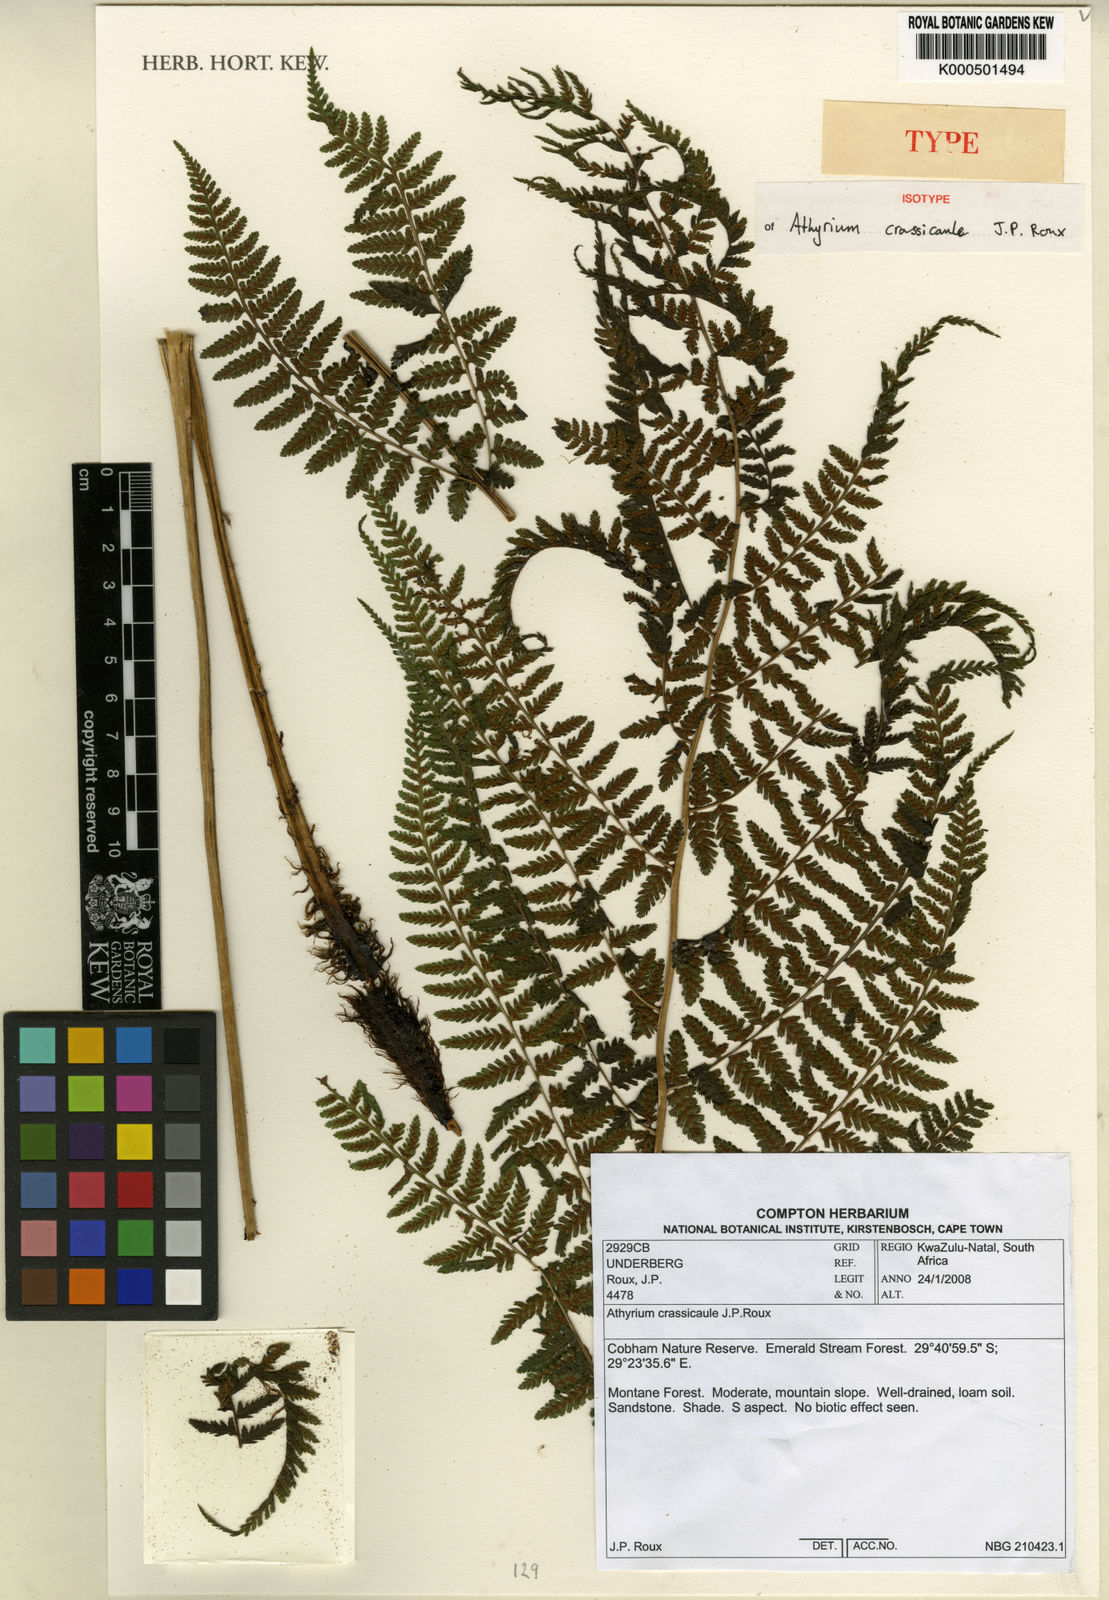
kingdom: Plantae
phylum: Tracheophyta
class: Polypodiopsida
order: Polypodiales
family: Athyriaceae
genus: Athyrium
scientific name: Athyrium crassicaule
